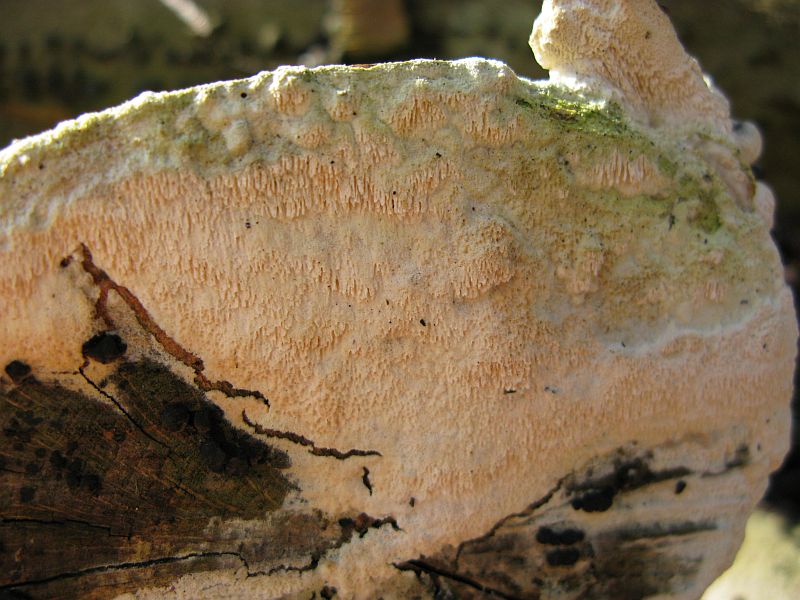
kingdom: Fungi
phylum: Basidiomycota
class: Agaricomycetes
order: Hymenochaetales
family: Schizoporaceae
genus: Schizopora
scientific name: Schizopora paradoxa
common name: hvid tandsvamp
